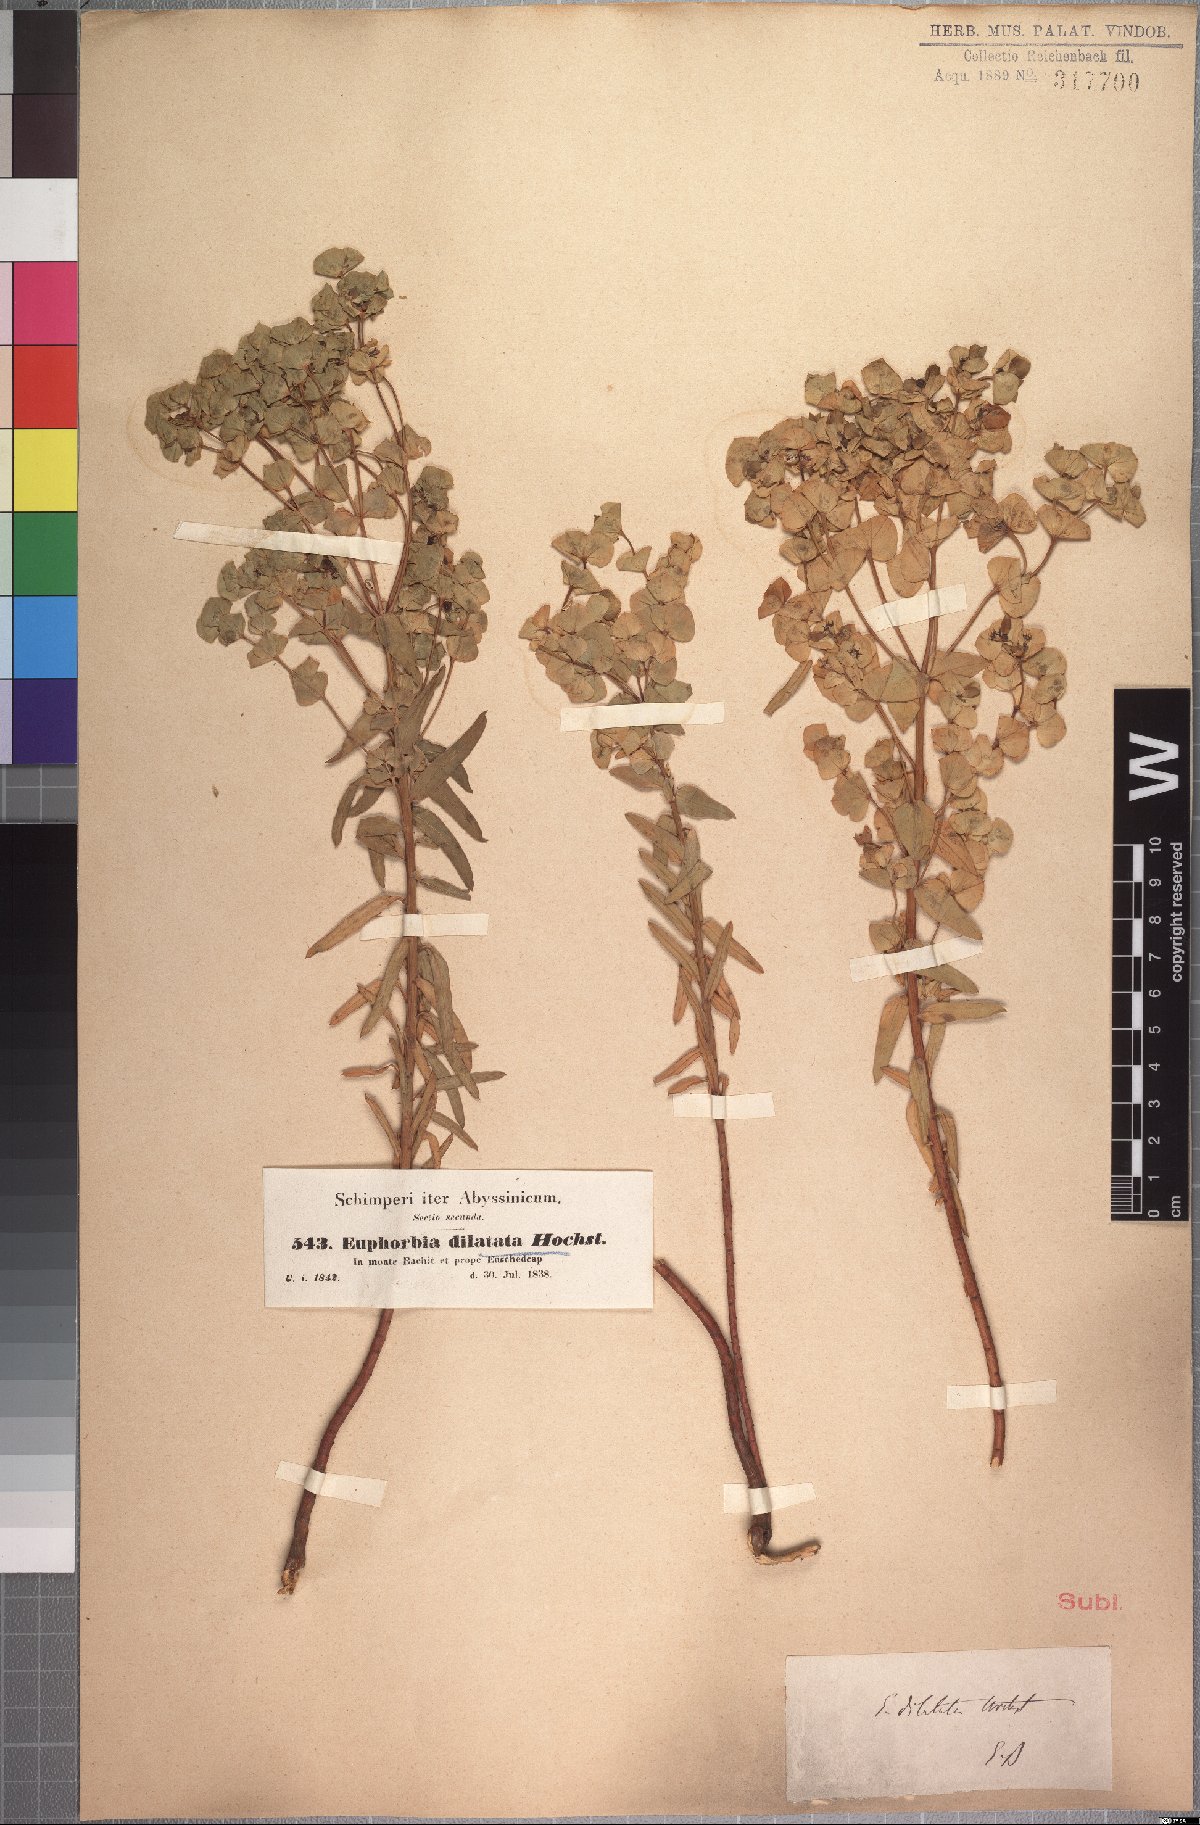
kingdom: Plantae
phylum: Tracheophyta
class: Magnoliopsida
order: Malpighiales
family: Euphorbiaceae
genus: Euphorbia
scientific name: Euphorbia schimperiana
